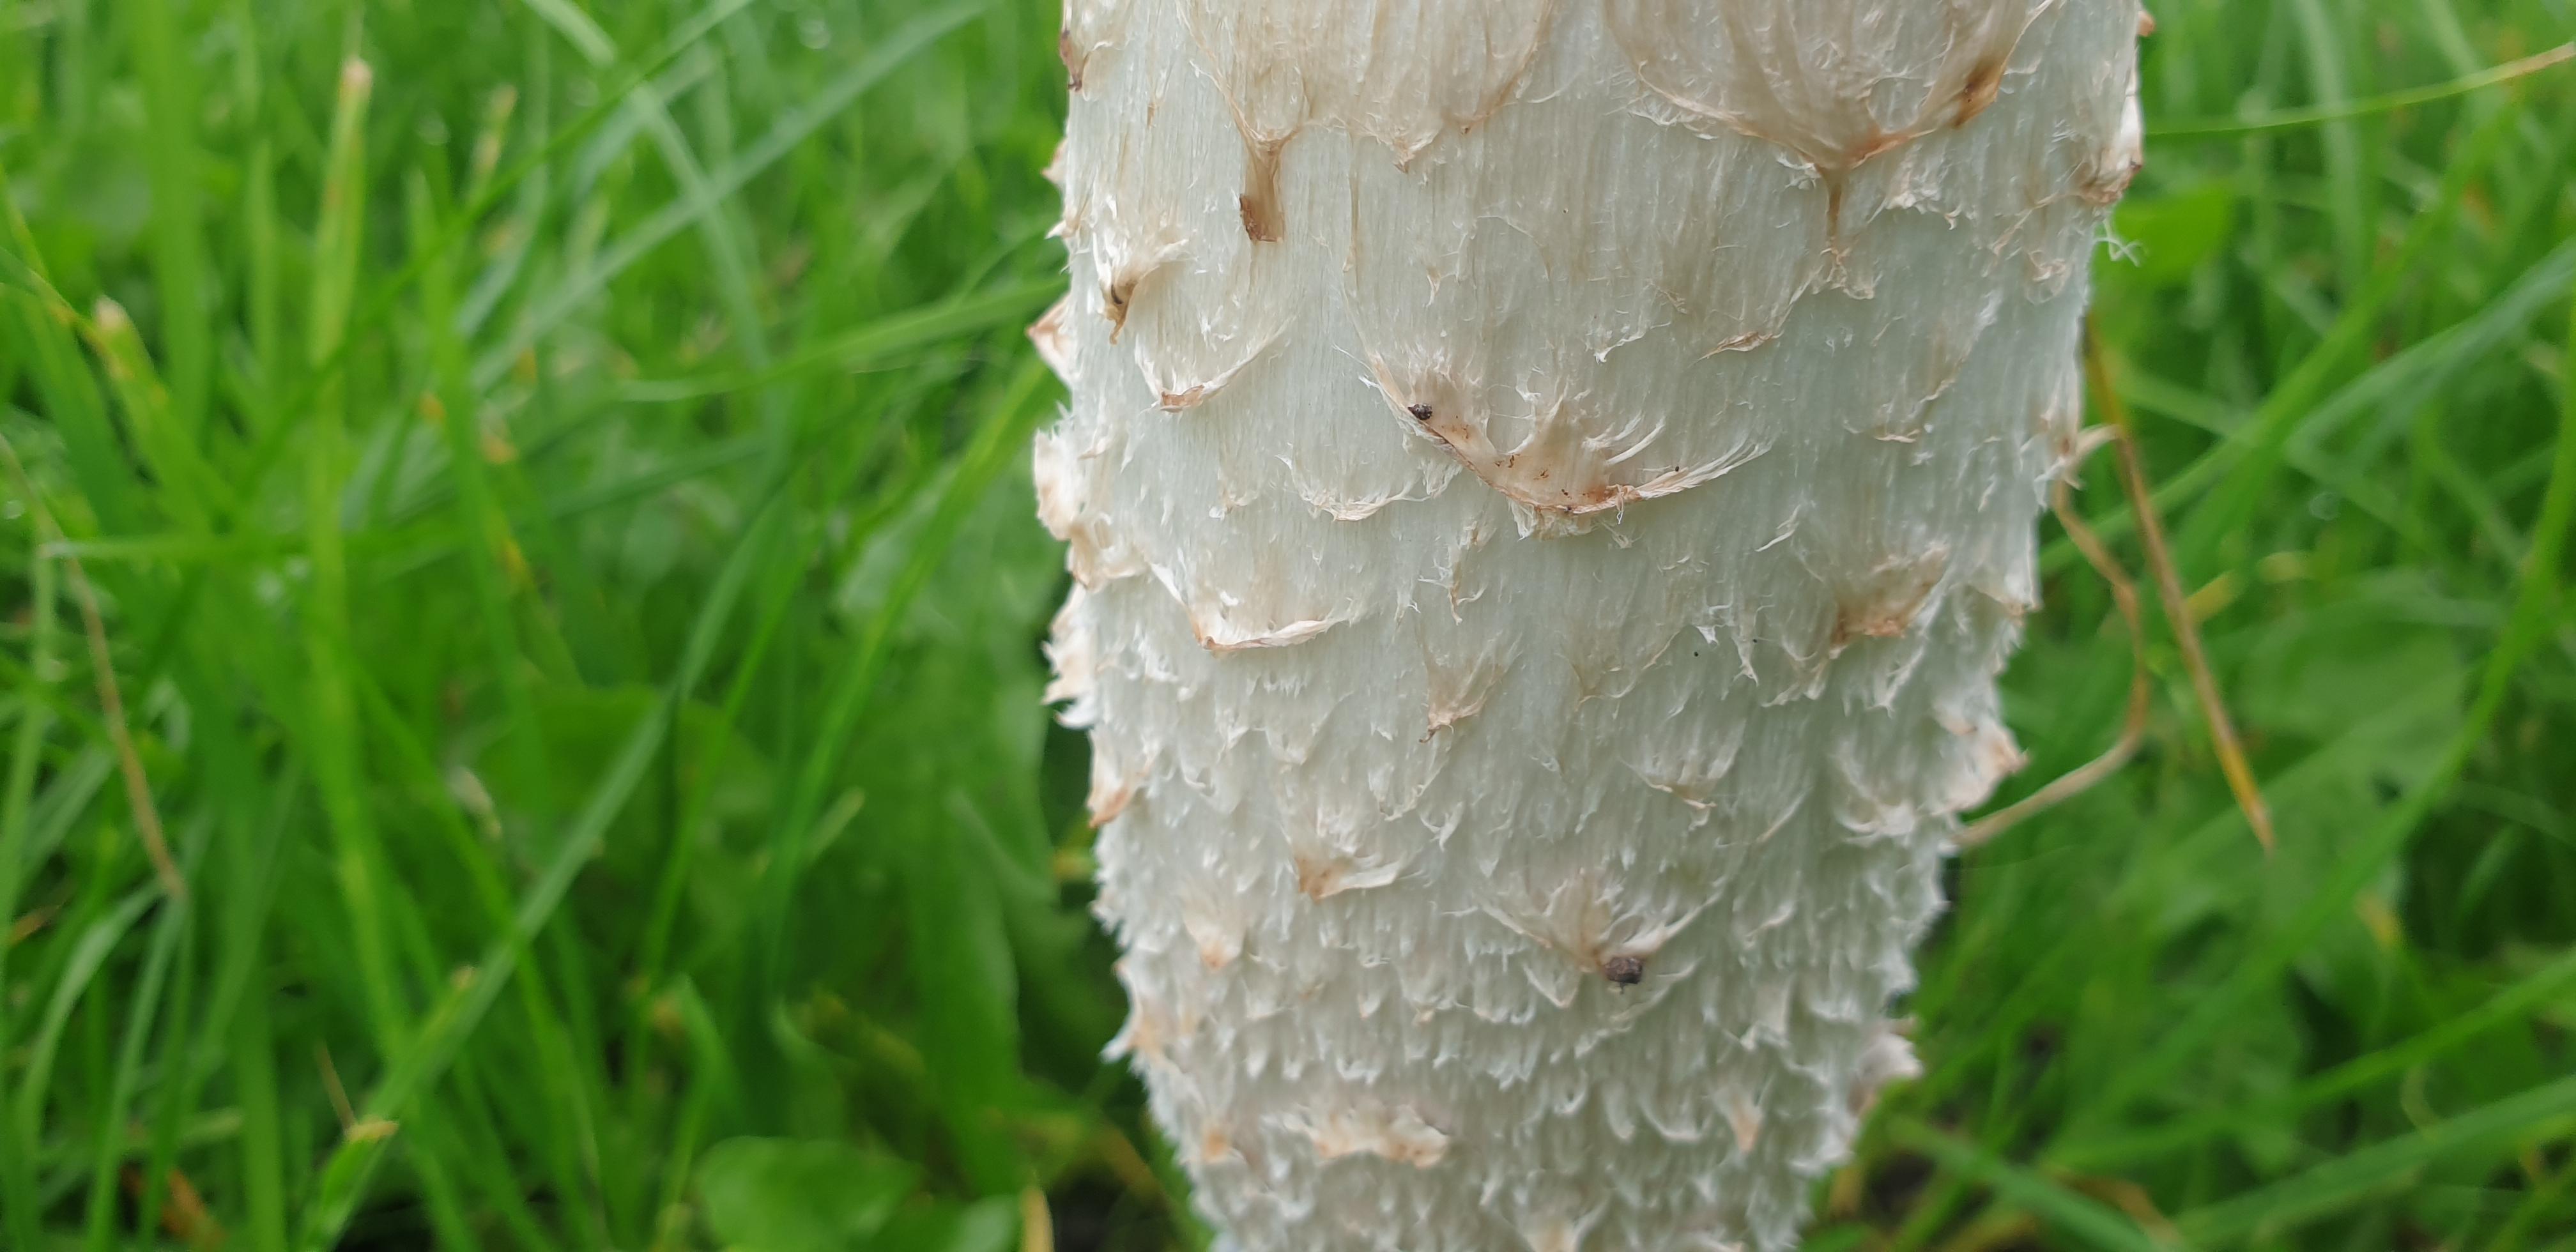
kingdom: Fungi
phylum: Basidiomycota
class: Agaricomycetes
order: Agaricales
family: Agaricaceae
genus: Coprinus
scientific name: Coprinus comatus
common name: stor parykhat
